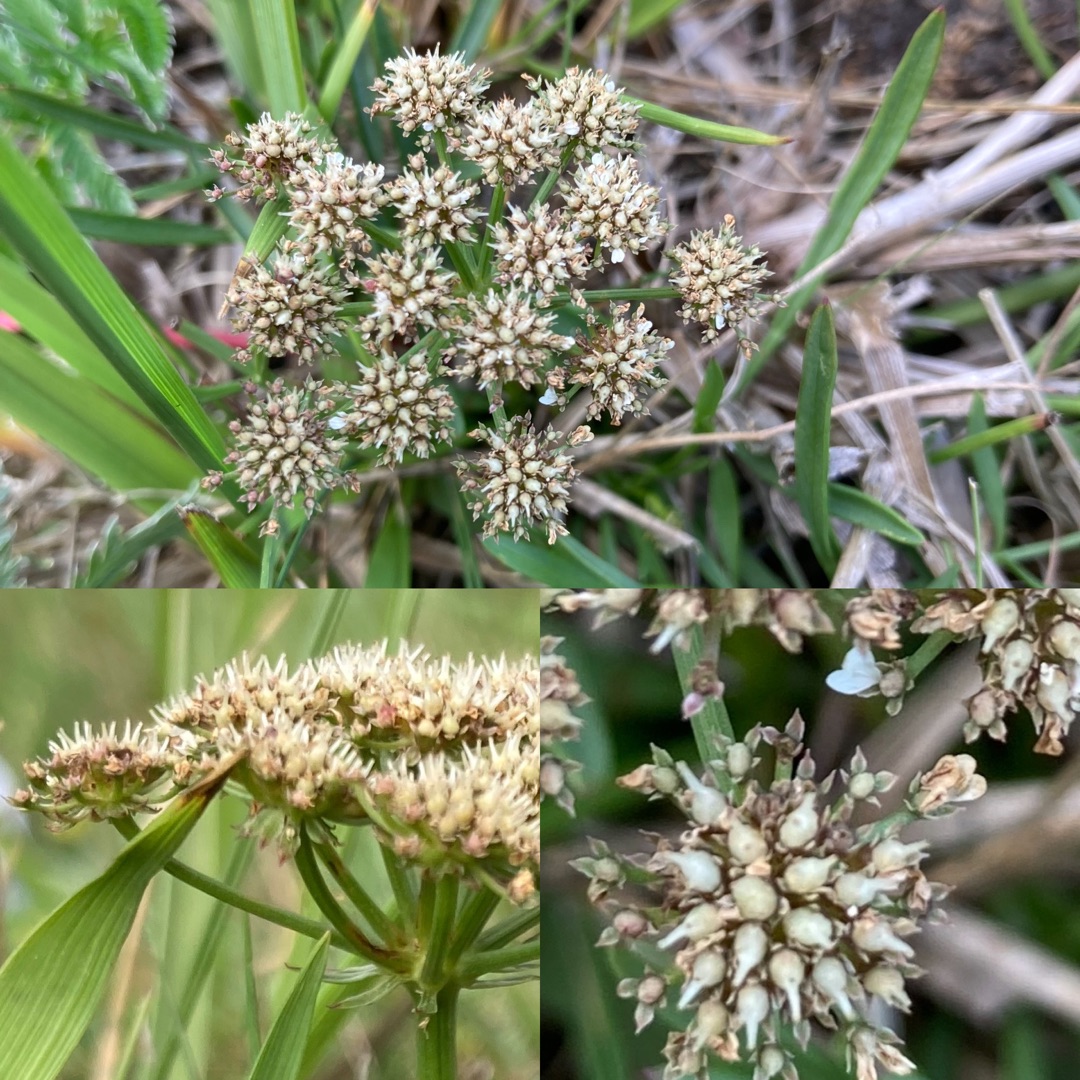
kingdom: Plantae
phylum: Tracheophyta
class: Magnoliopsida
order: Apiales
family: Apiaceae
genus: Oenanthe
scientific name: Oenanthe lachenalii
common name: Eng-klaseskærm
